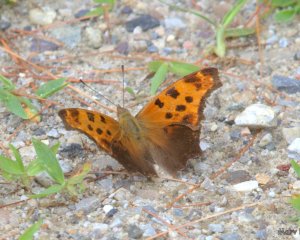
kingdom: Animalia
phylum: Arthropoda
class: Insecta
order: Lepidoptera
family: Nymphalidae
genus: Polygonia
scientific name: Polygonia comma
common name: Eastern Comma
